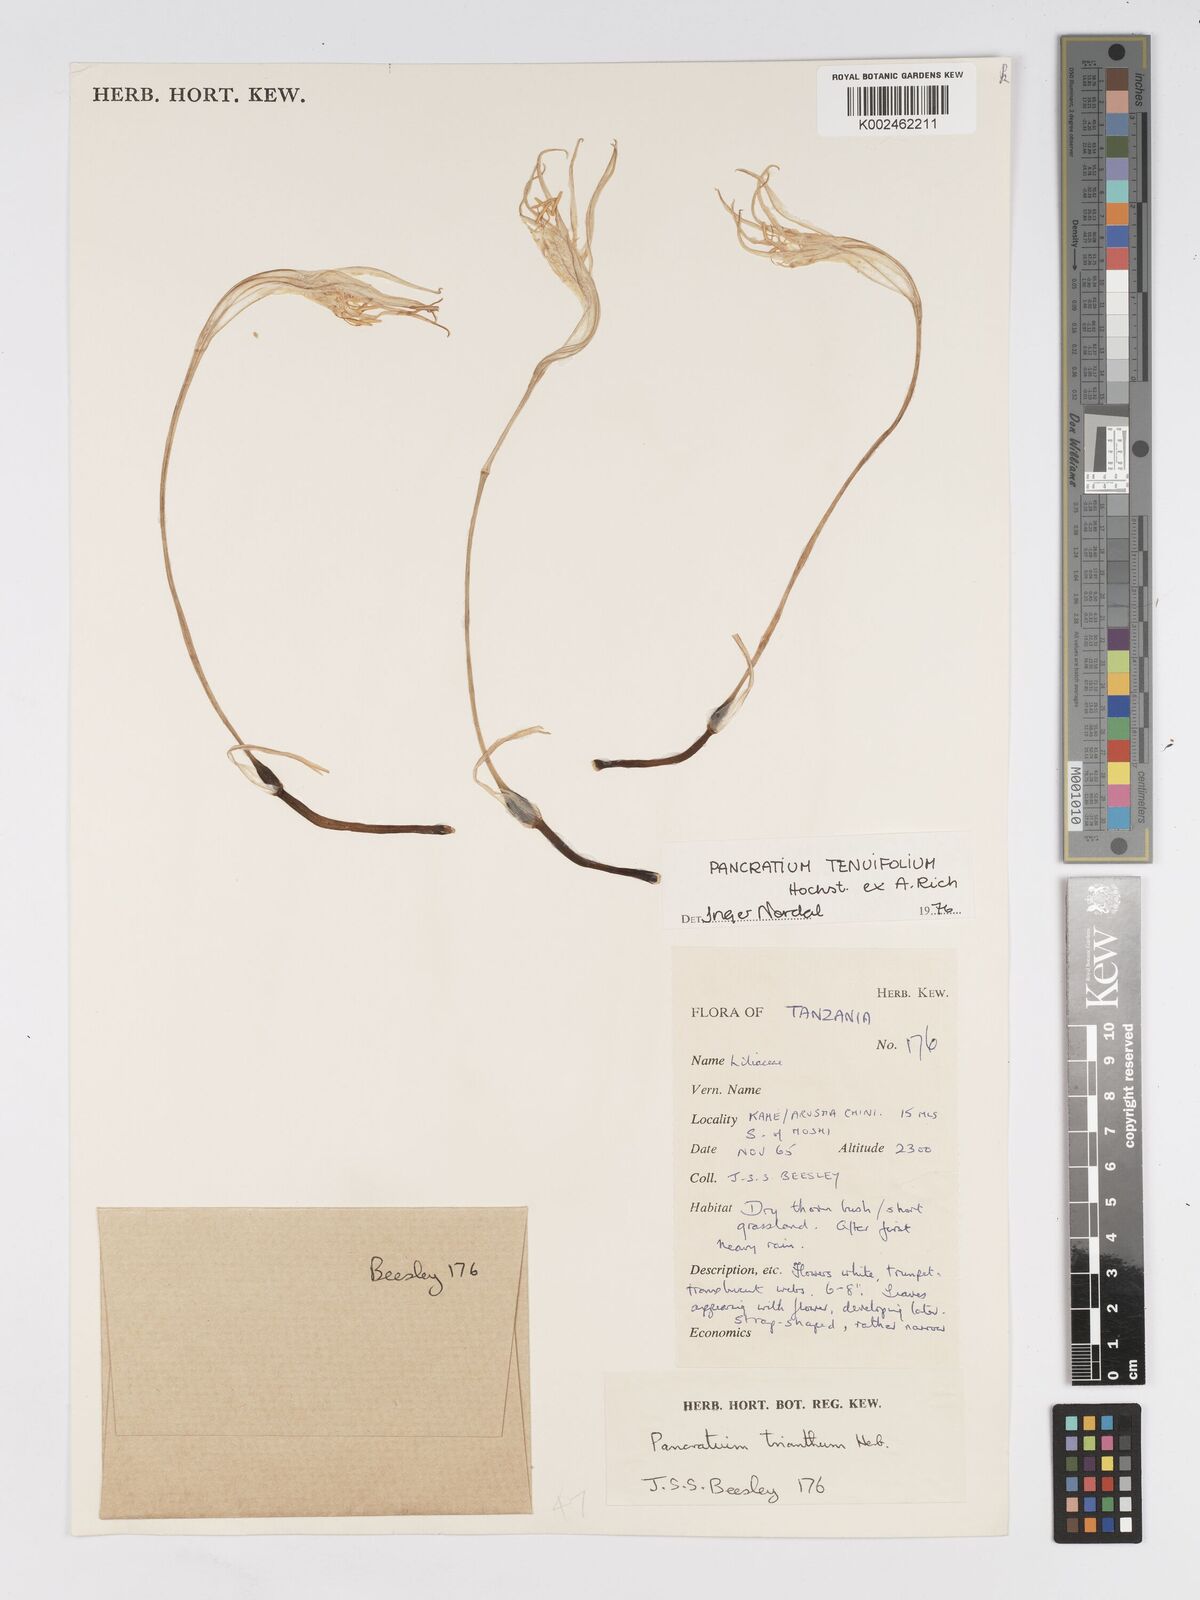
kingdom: Plantae
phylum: Tracheophyta
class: Liliopsida
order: Asparagales
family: Amaryllidaceae
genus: Pancratium
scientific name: Pancratium tenuifolium
